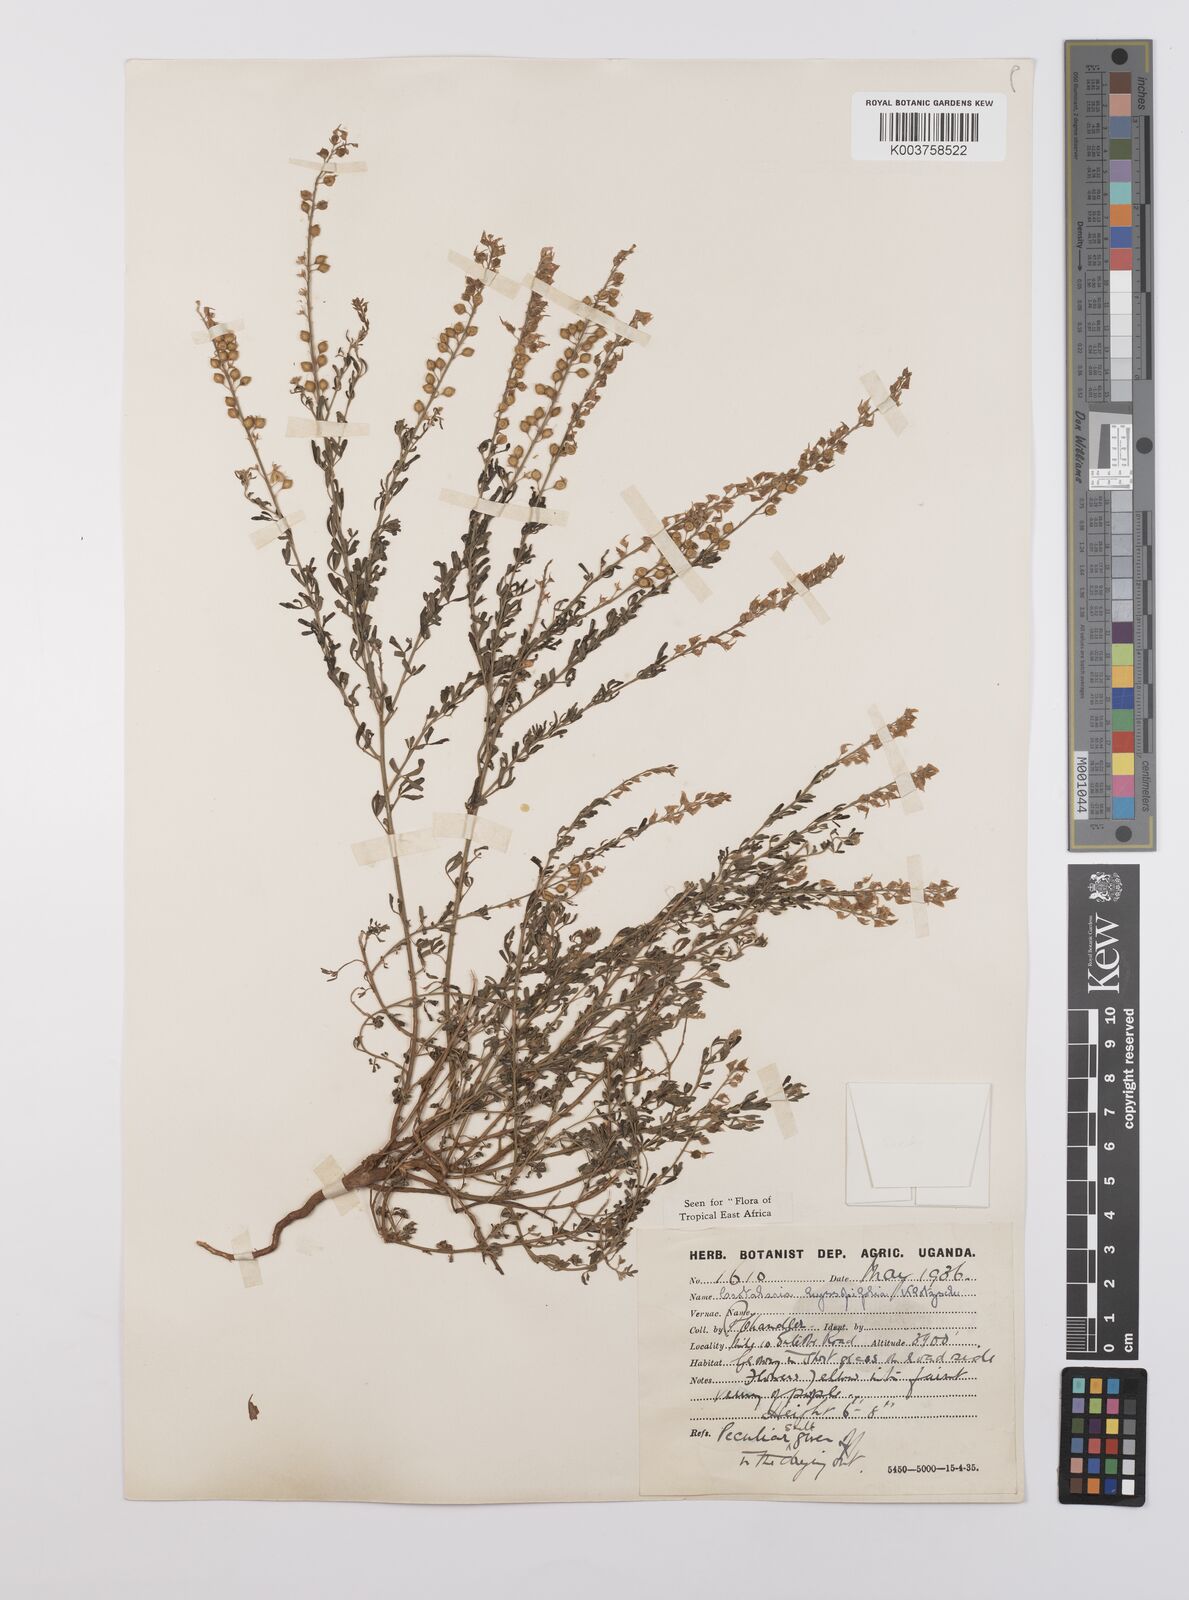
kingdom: Plantae
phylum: Tracheophyta
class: Magnoliopsida
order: Fabales
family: Fabaceae
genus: Crotalaria
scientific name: Crotalaria hyssopifolia
